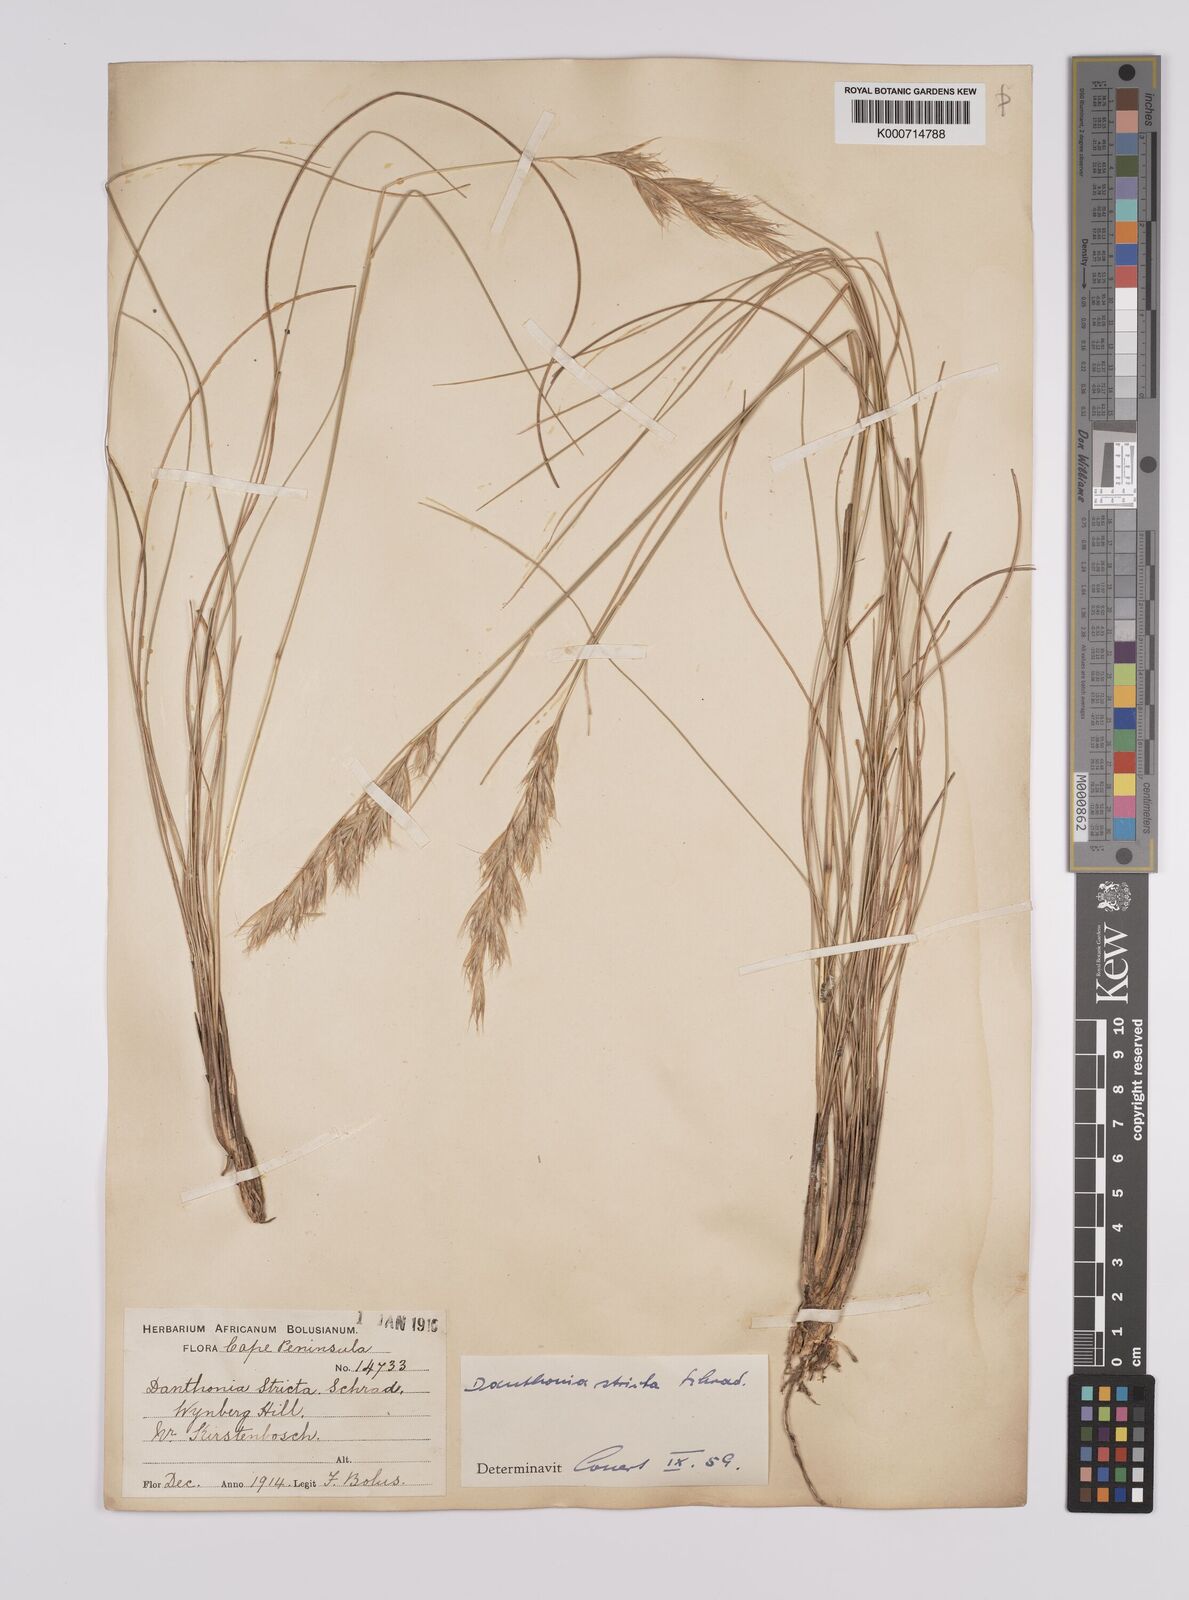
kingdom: Plantae
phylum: Tracheophyta
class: Liliopsida
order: Poales
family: Poaceae
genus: Rytidosperma
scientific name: Rytidosperma
